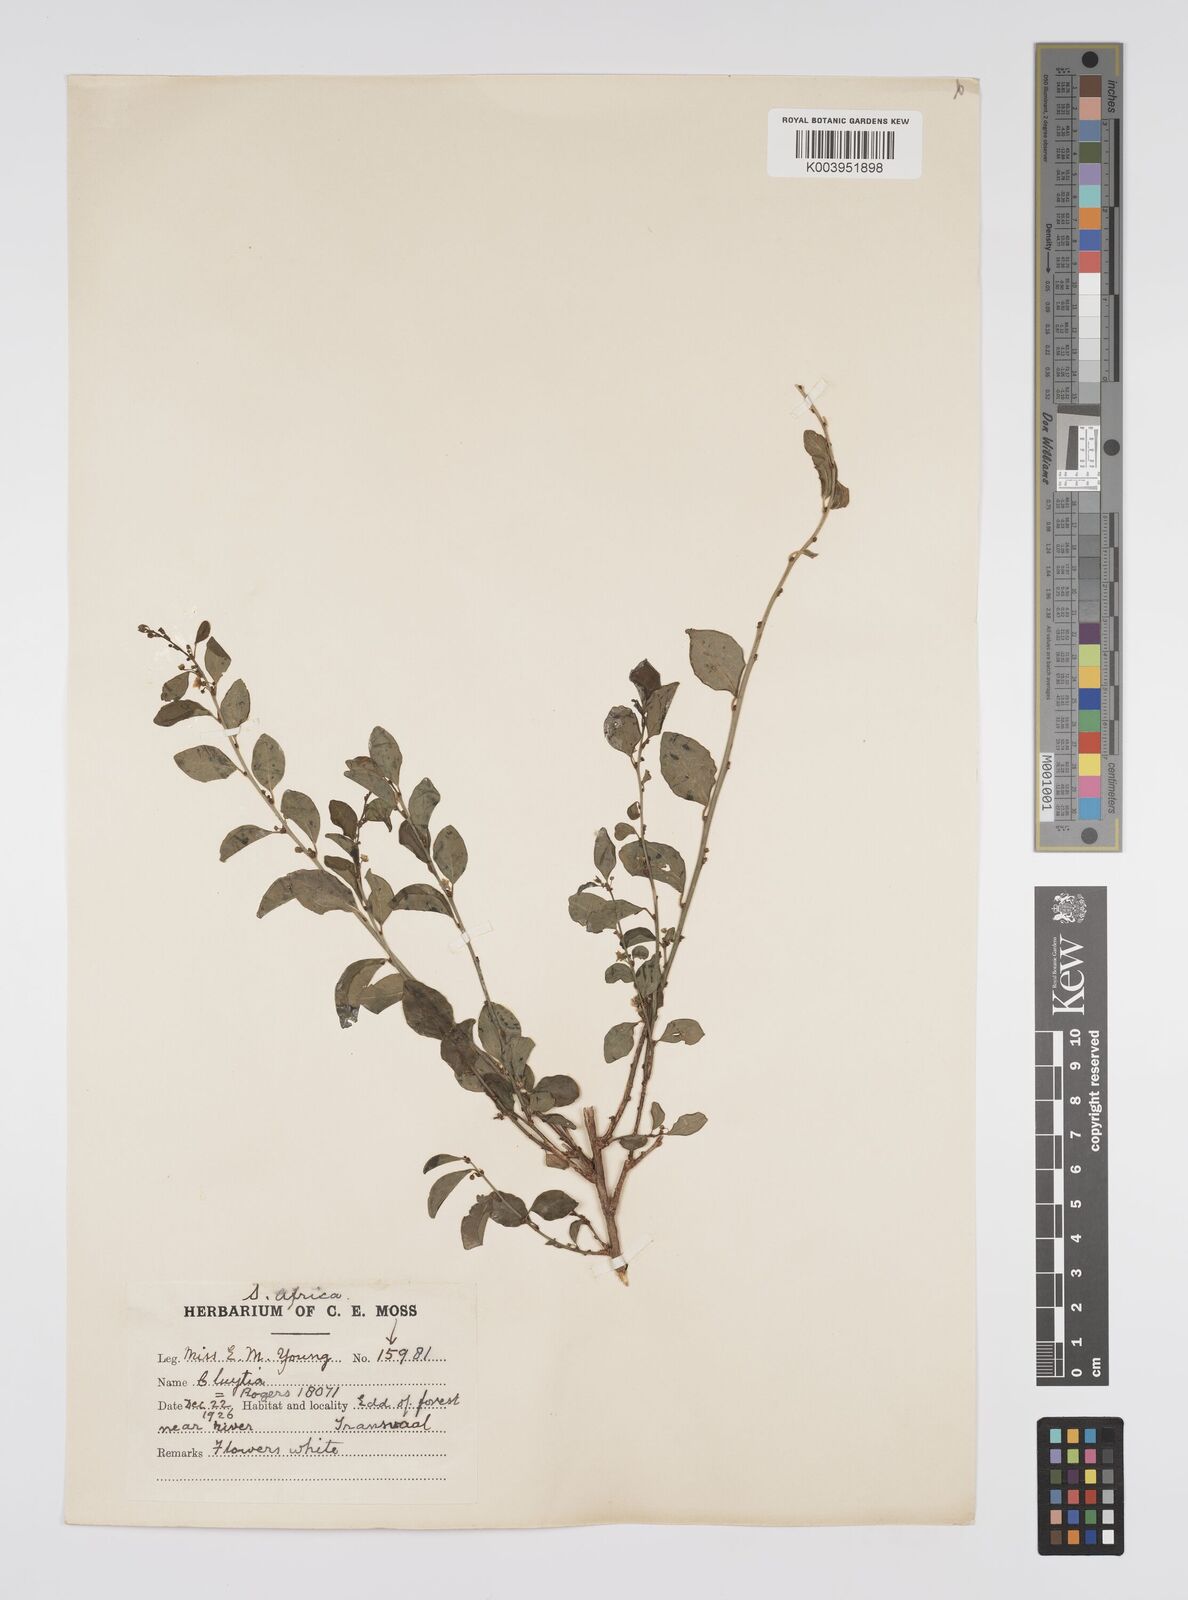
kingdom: Plantae
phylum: Tracheophyta
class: Magnoliopsida
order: Malpighiales
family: Peraceae
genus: Clutia
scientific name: Clutia galpinii
